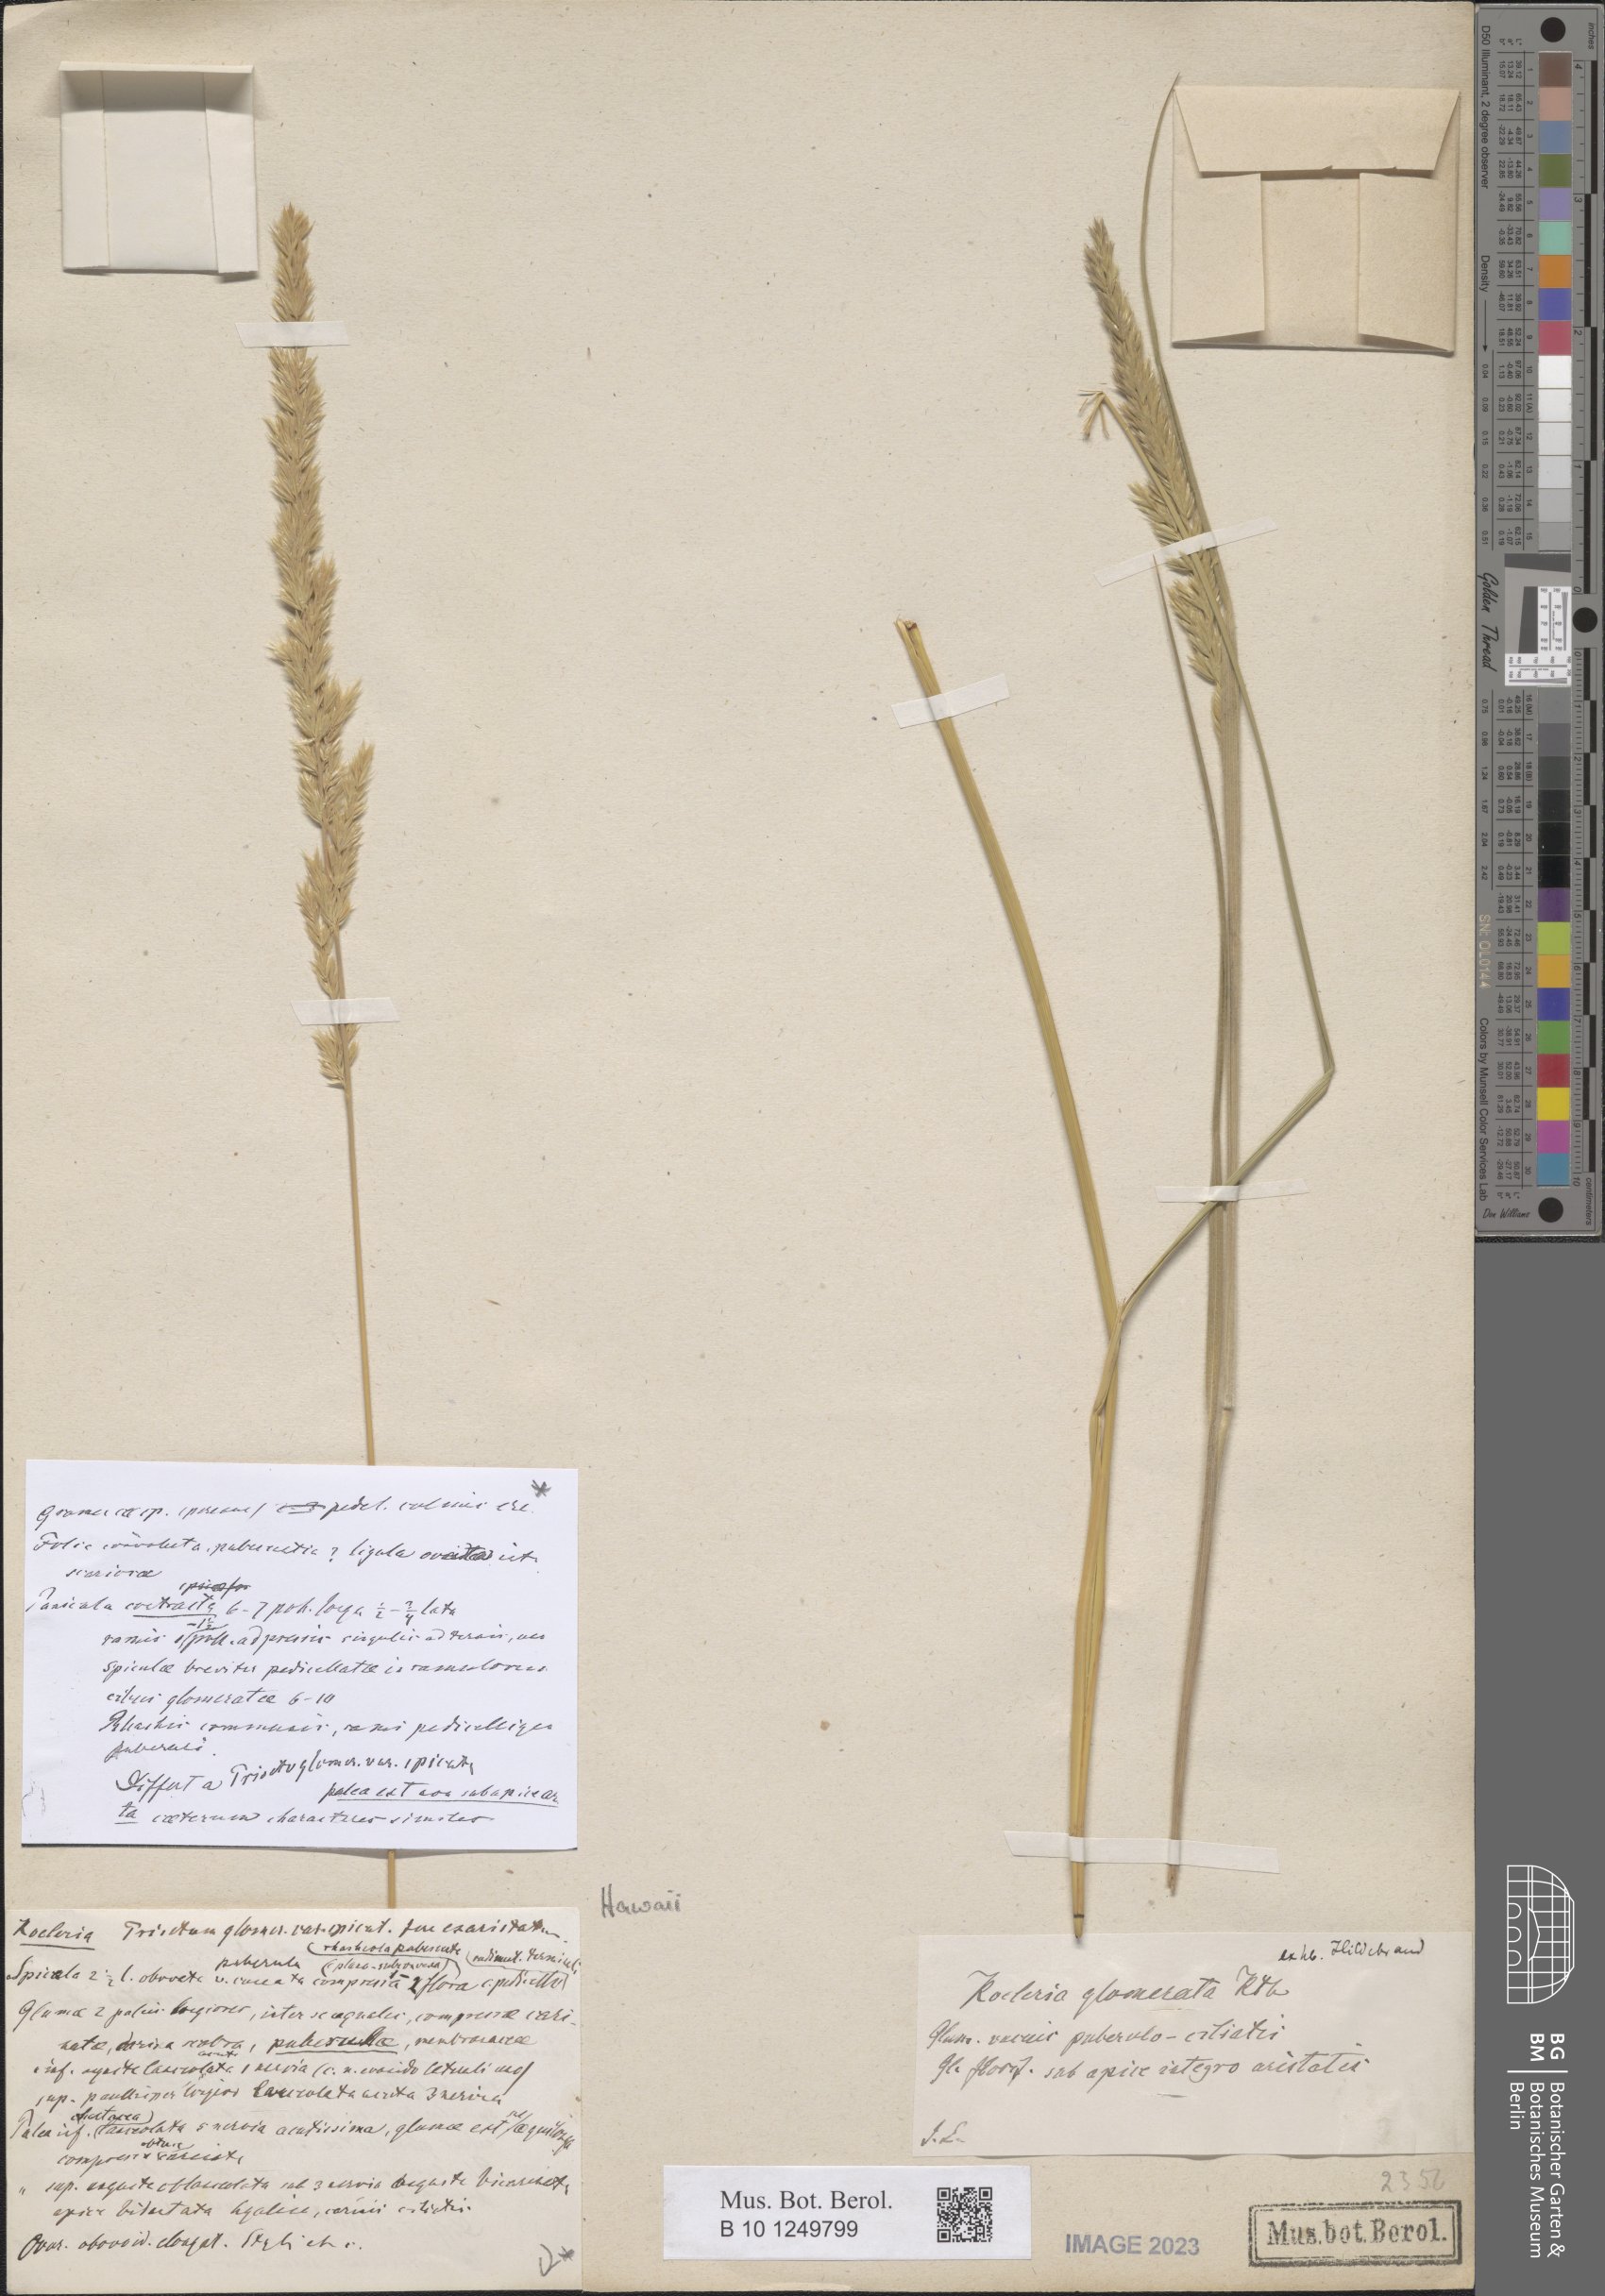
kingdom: Plantae
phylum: Tracheophyta
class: Liliopsida
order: Poales
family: Poaceae
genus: Trisetum
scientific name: Trisetum glomeratum
